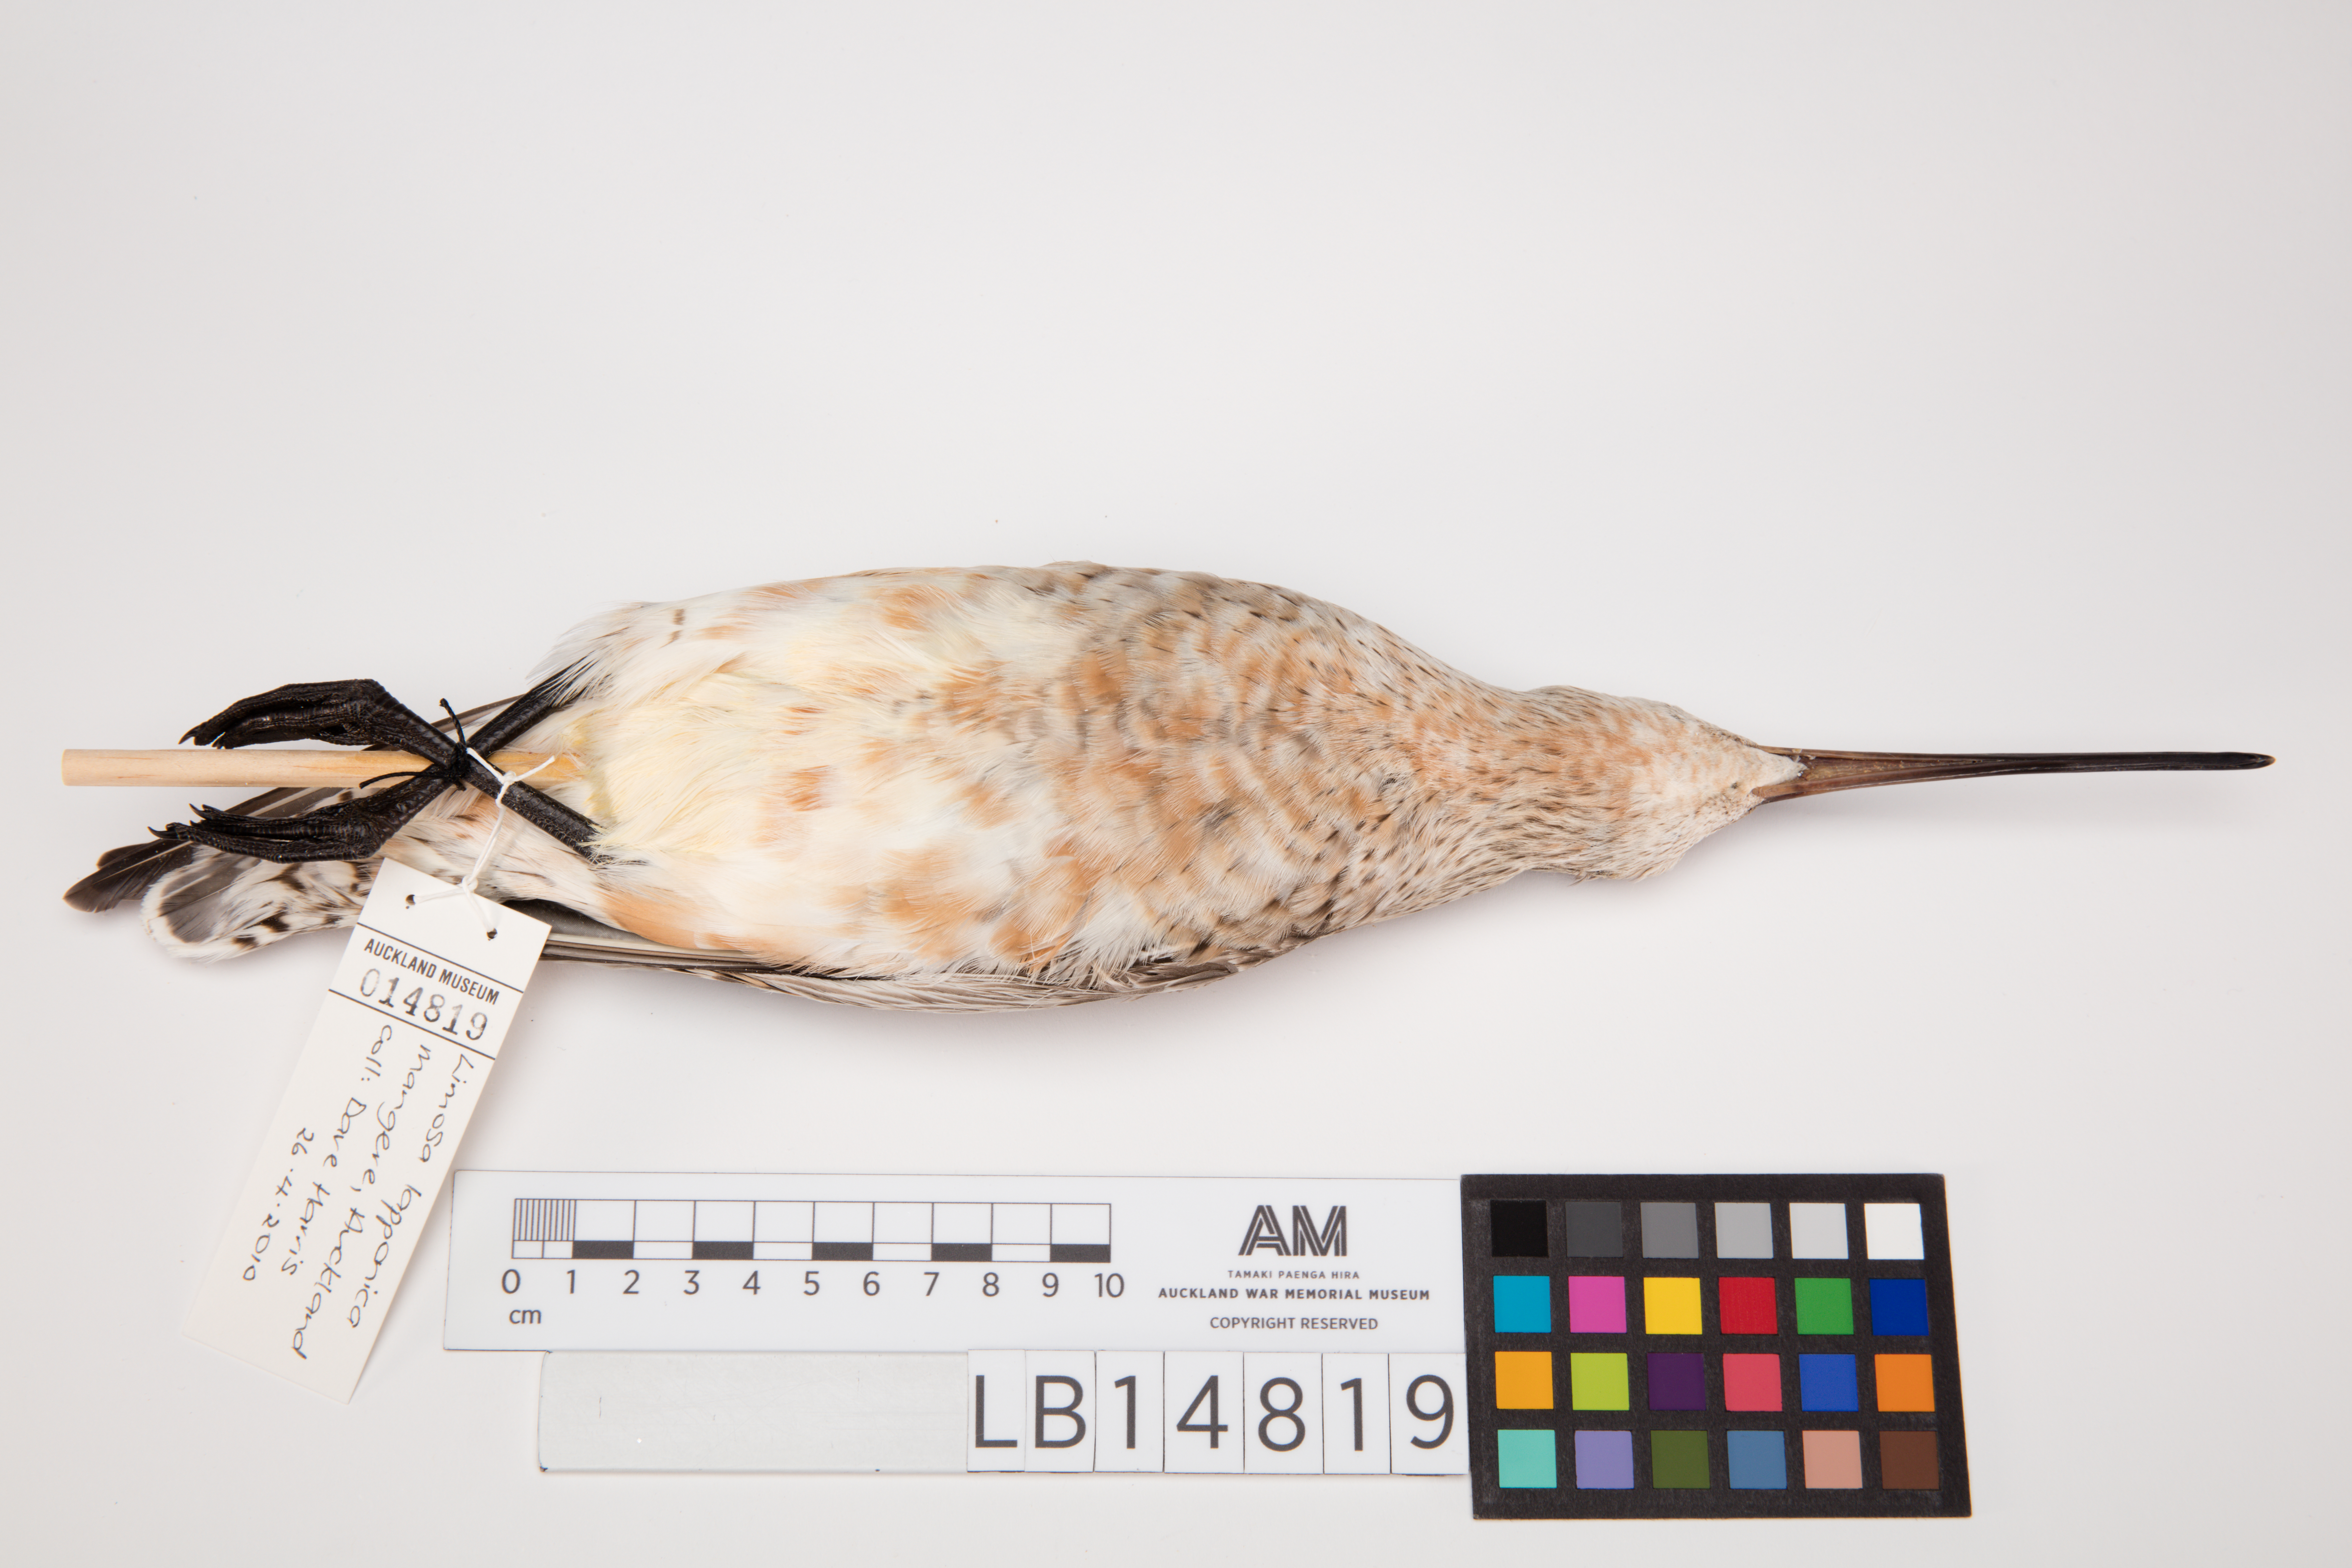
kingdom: Animalia
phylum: Chordata
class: Aves
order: Charadriiformes
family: Scolopacidae
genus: Limosa
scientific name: Limosa lapponica
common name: Bar-tailed godwit
